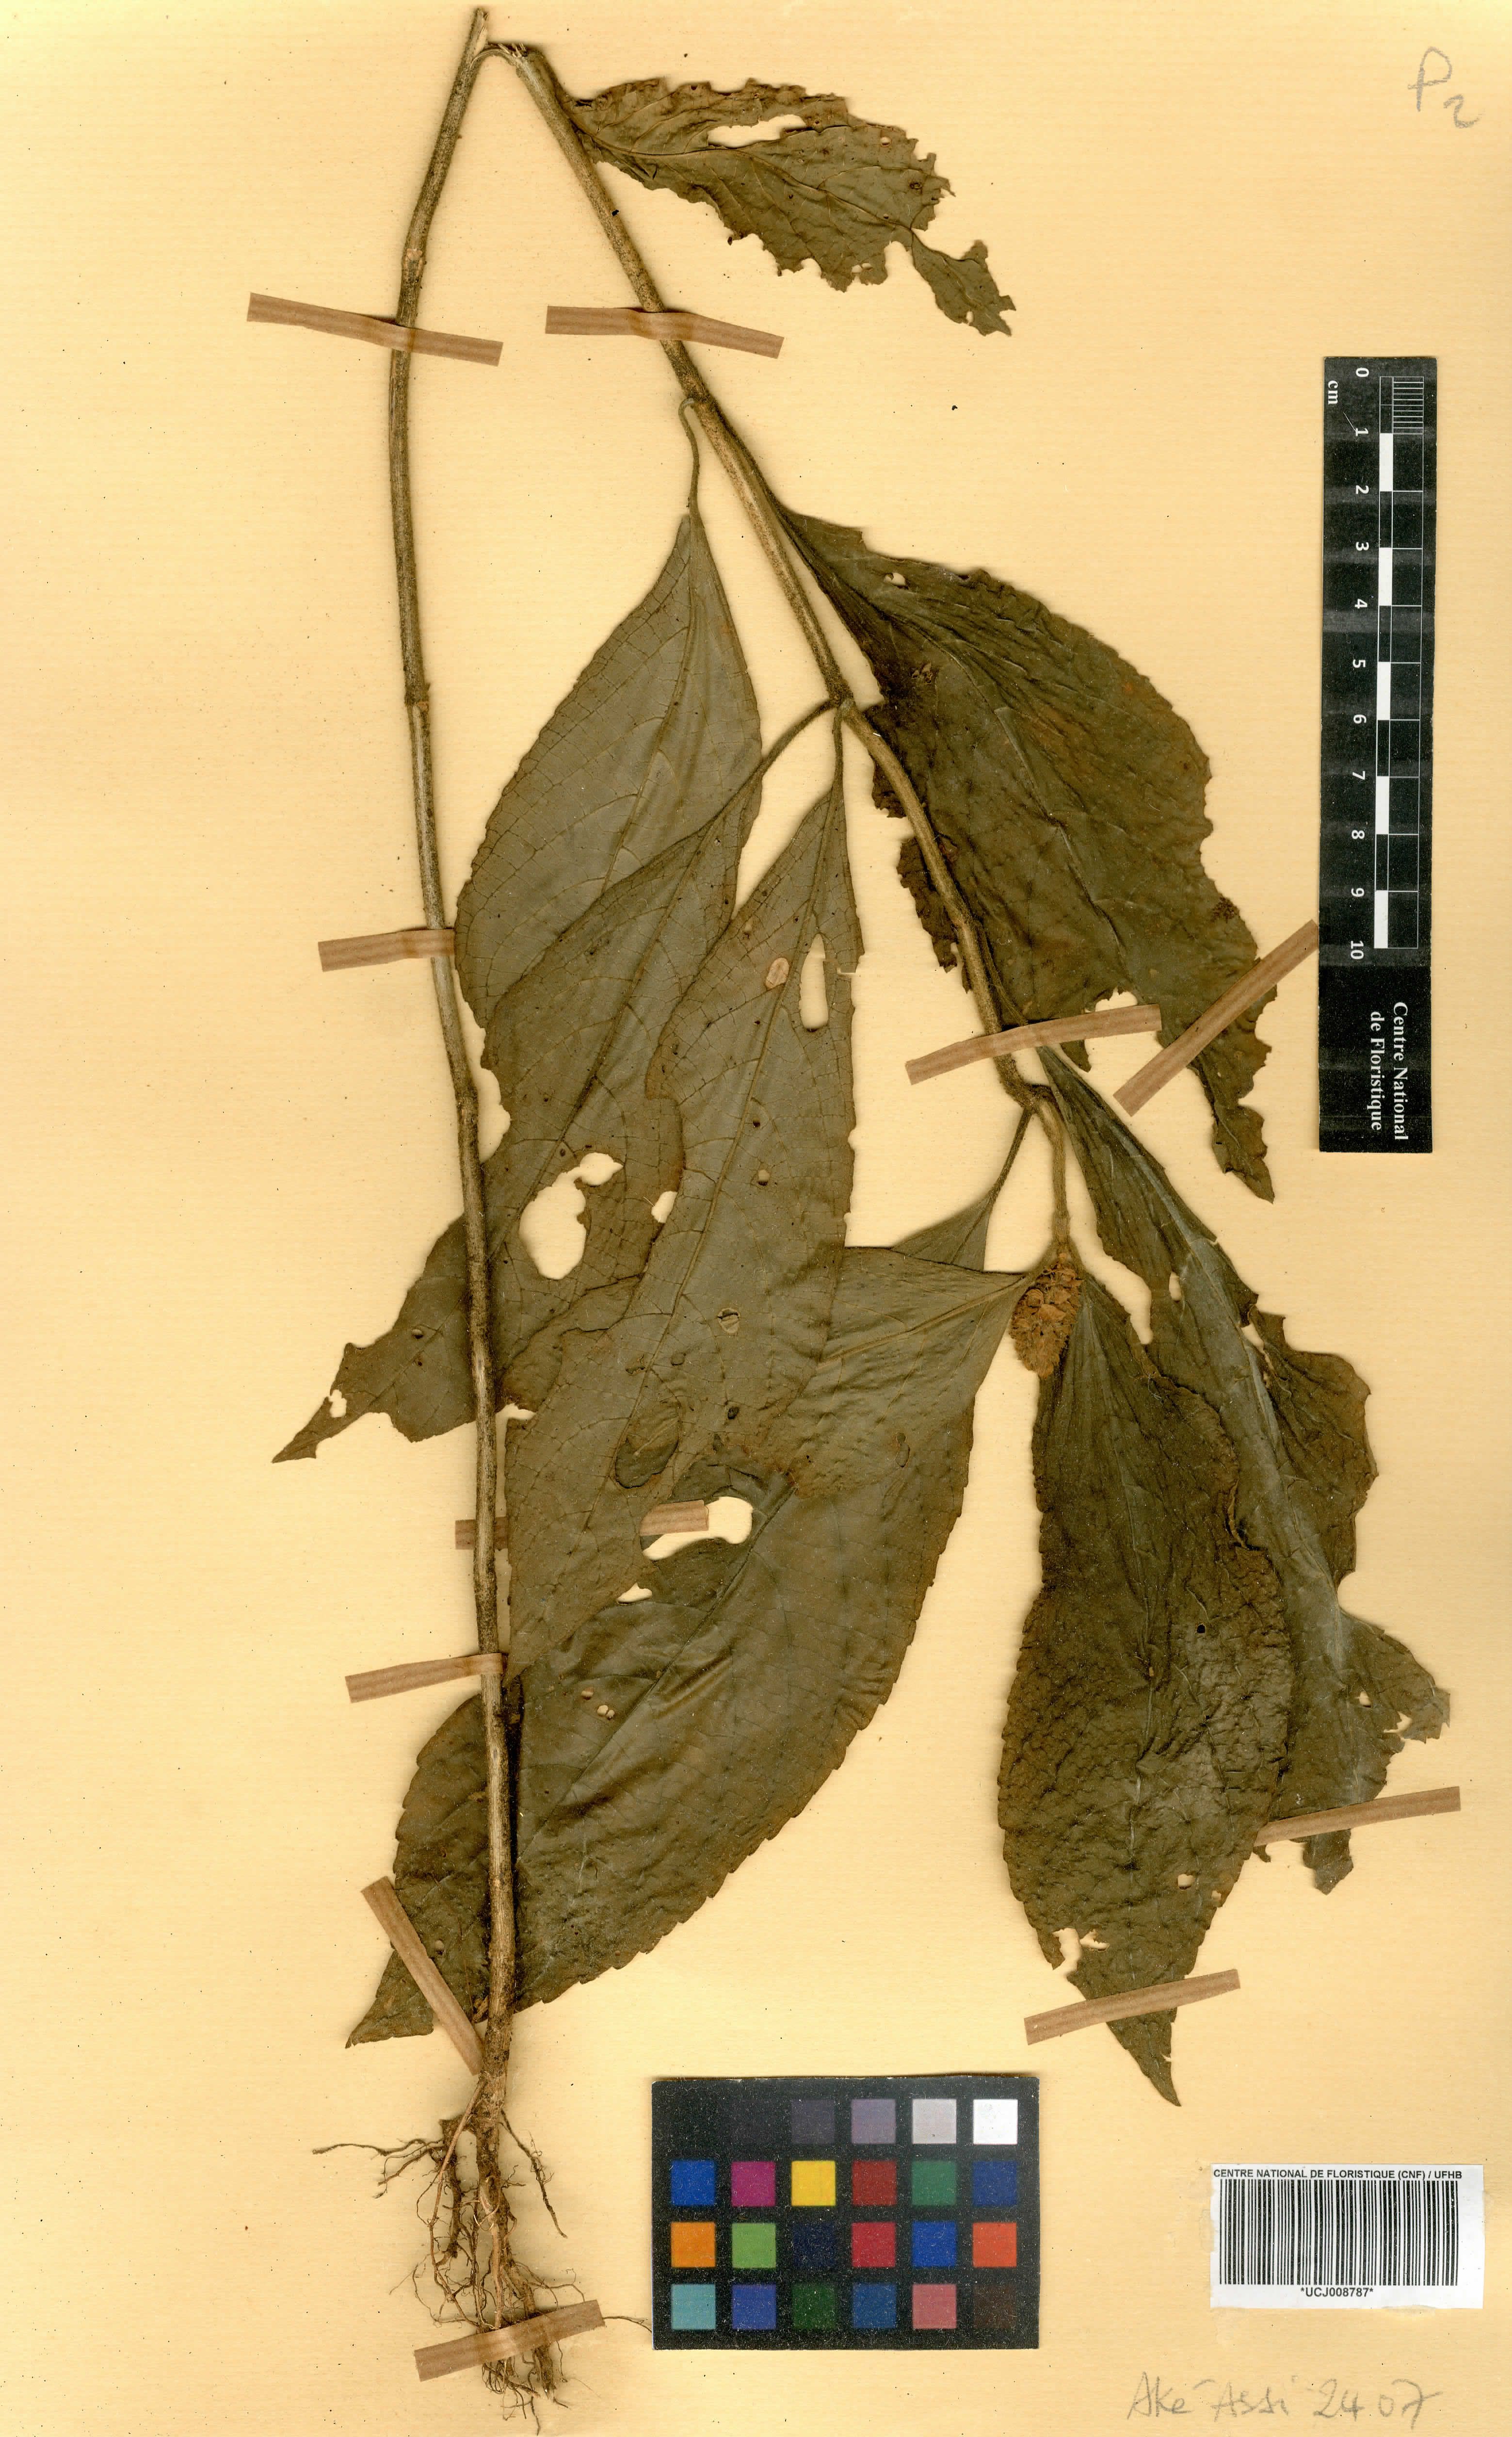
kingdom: Plantae
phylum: Tracheophyta
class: Magnoliopsida
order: Lamiales
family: Lamiaceae
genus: Achyrospermum
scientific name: Achyrospermum oblongifolium
